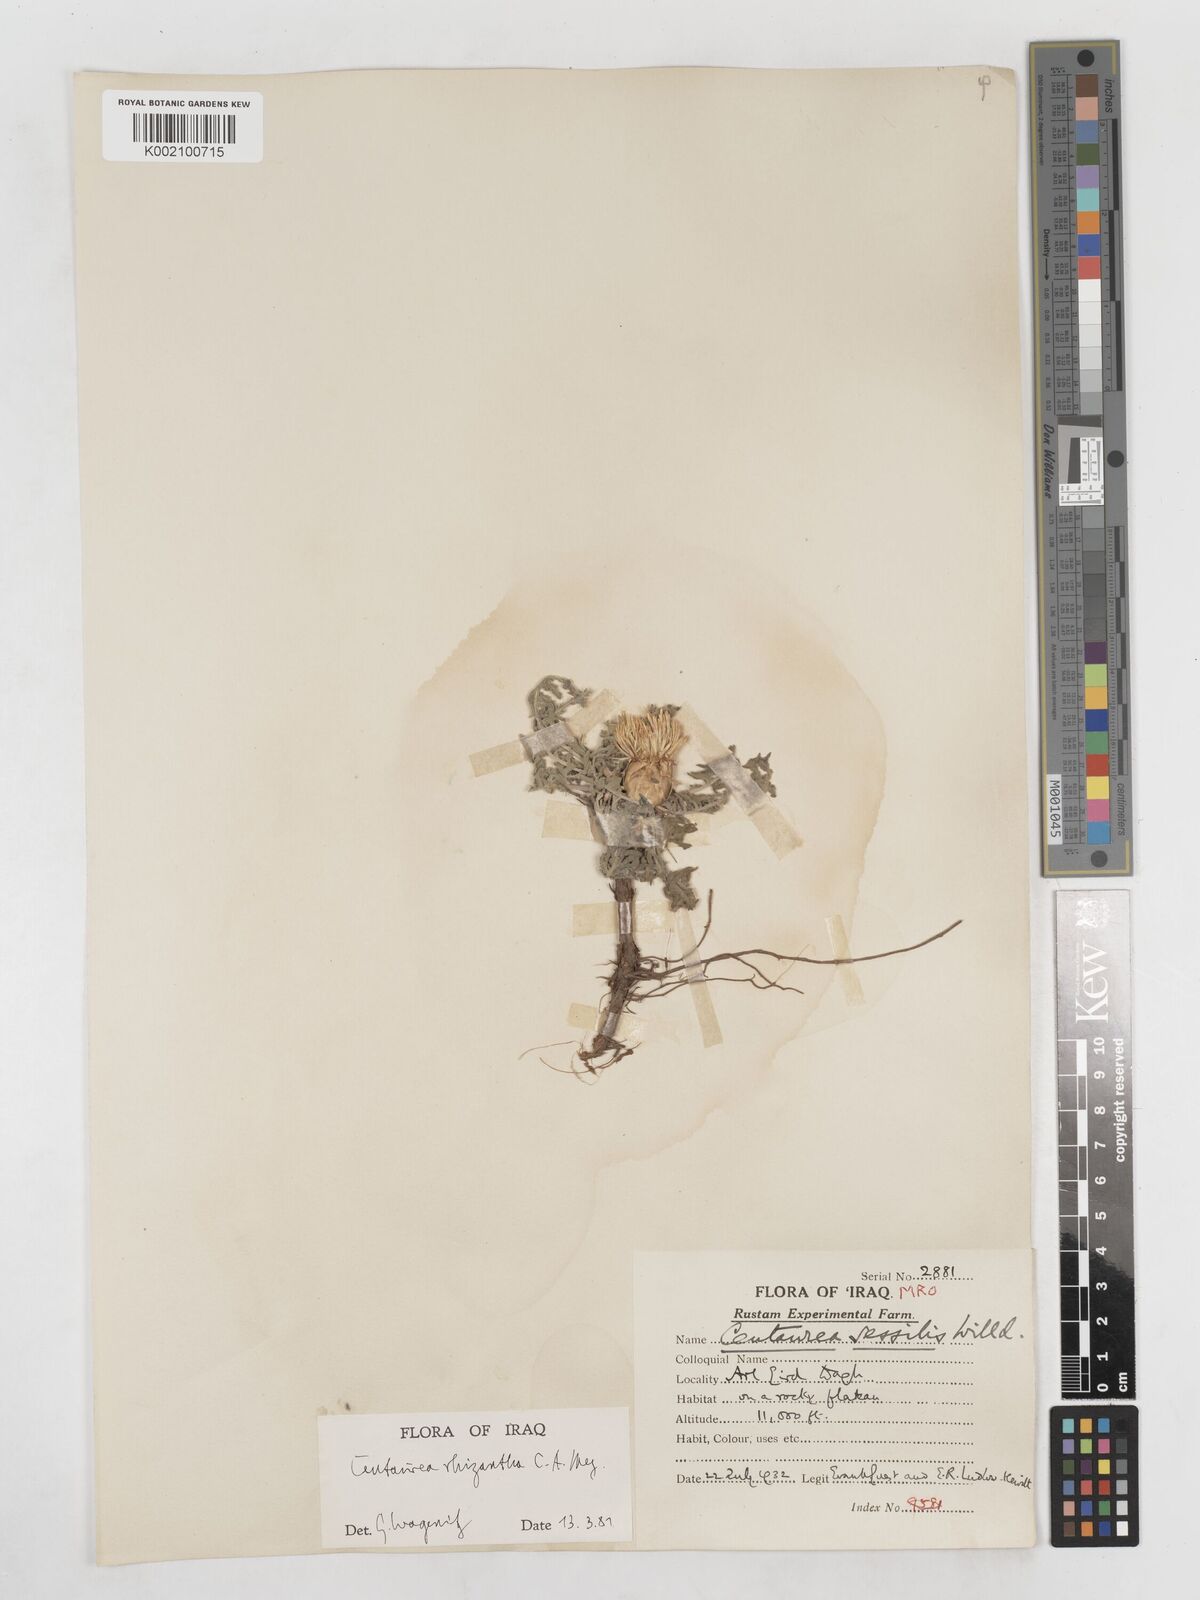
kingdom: Plantae
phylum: Tracheophyta
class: Magnoliopsida
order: Asterales
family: Asteraceae
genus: Centaurea
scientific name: Centaurea rhizantha
